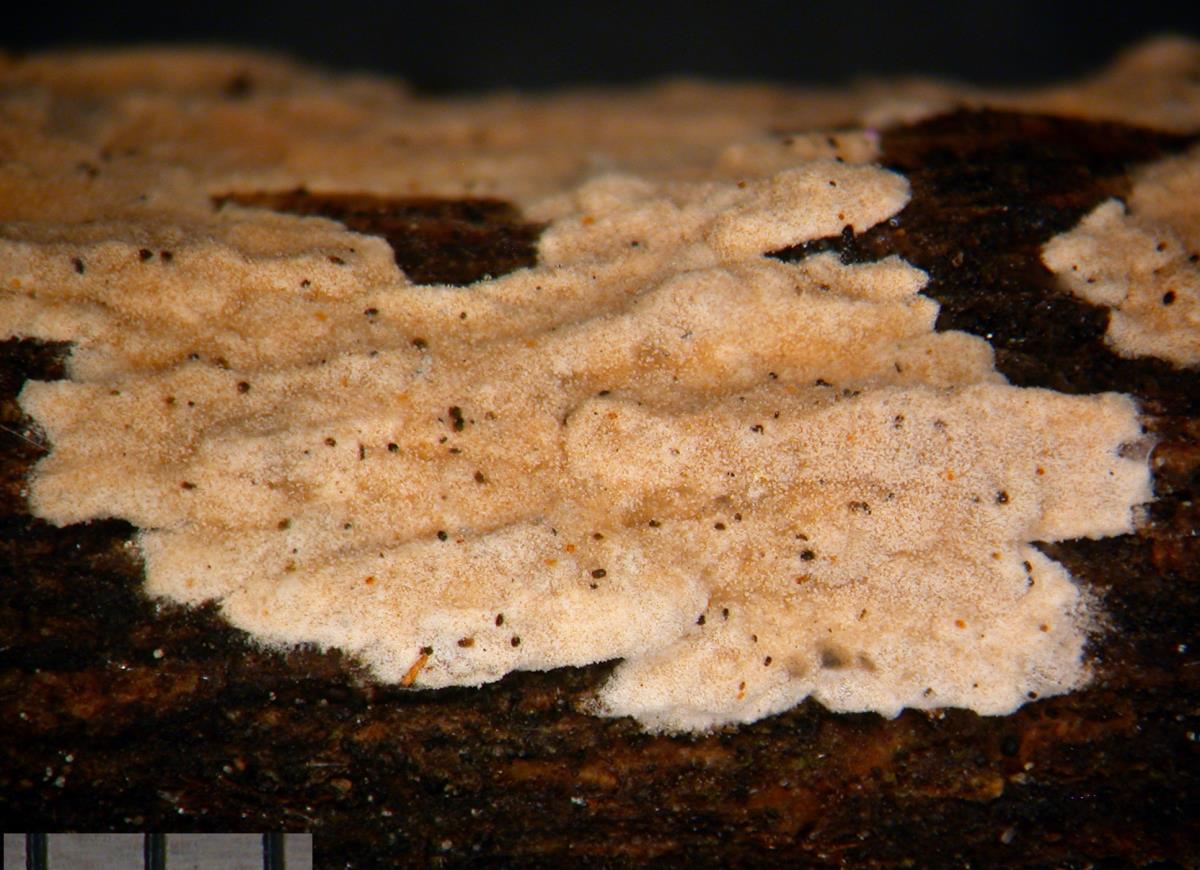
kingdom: Fungi
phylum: Basidiomycota
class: Agaricomycetes
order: Russulales
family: Stereaceae
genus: Aleurodiscus
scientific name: Aleurodiscus coronatus
